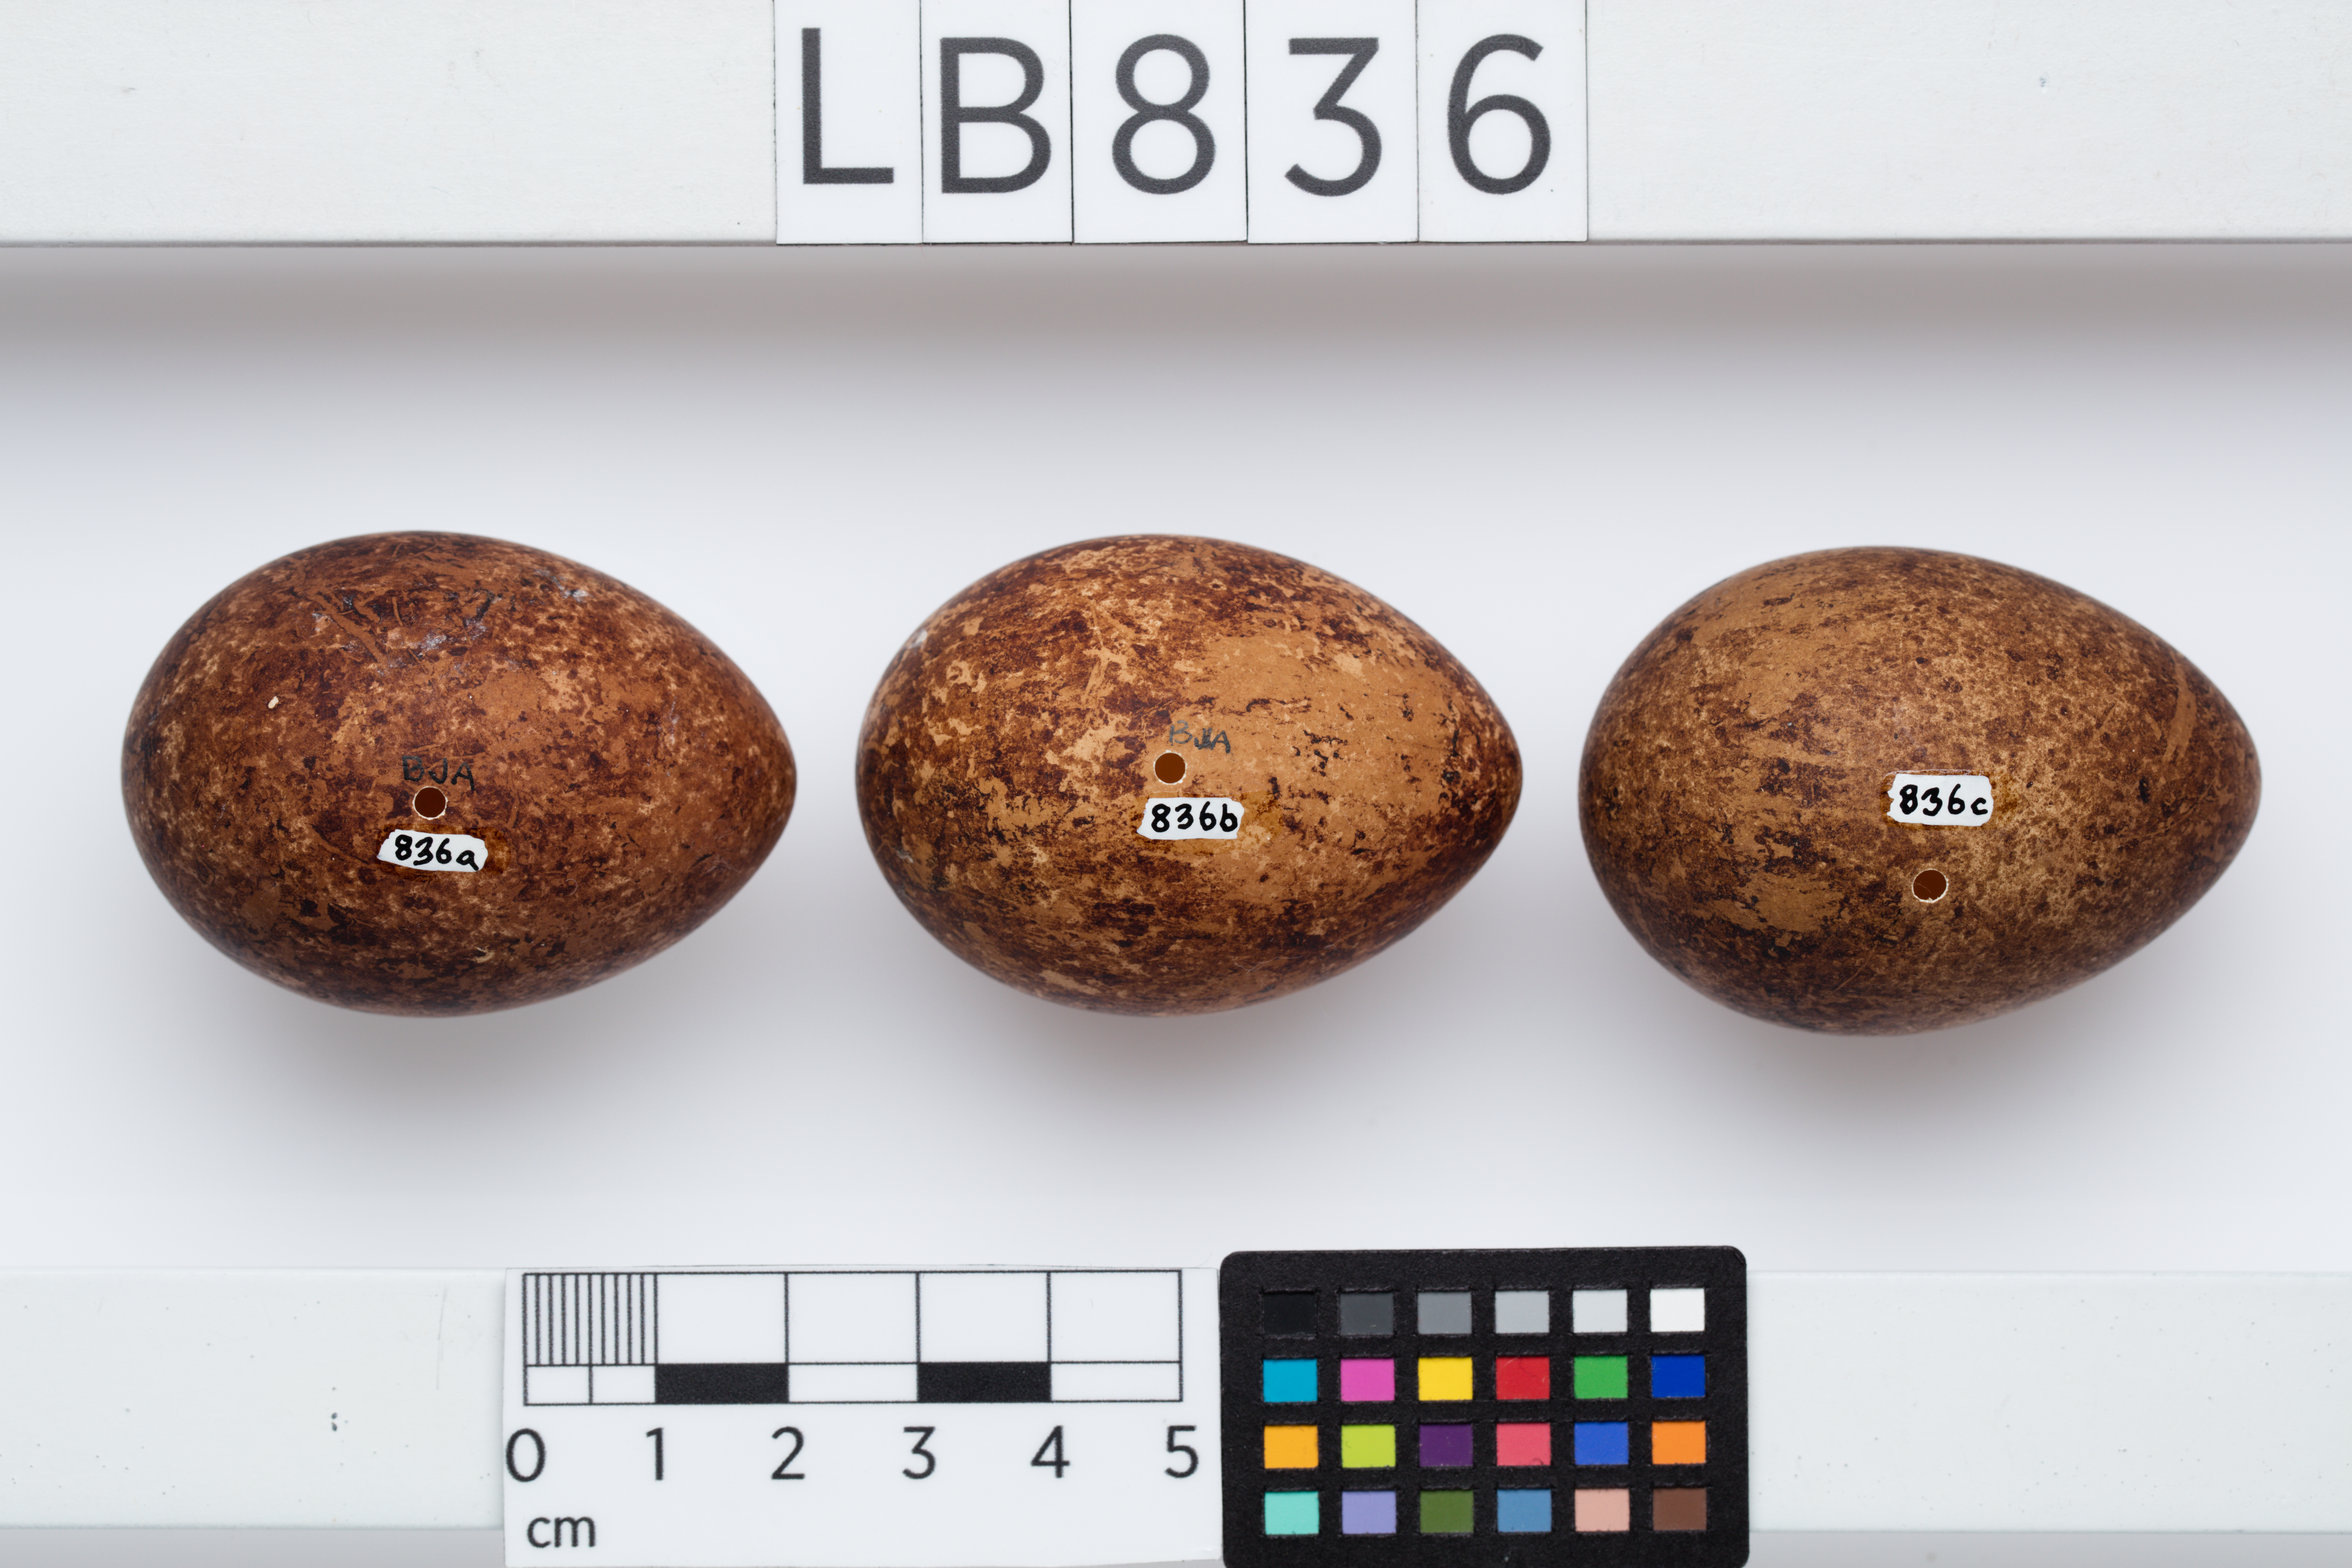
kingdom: Animalia
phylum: Chordata
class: Aves
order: Falconiformes
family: Falconidae
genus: Falco
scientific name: Falco novaeseelandiae
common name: New zealand falcon
